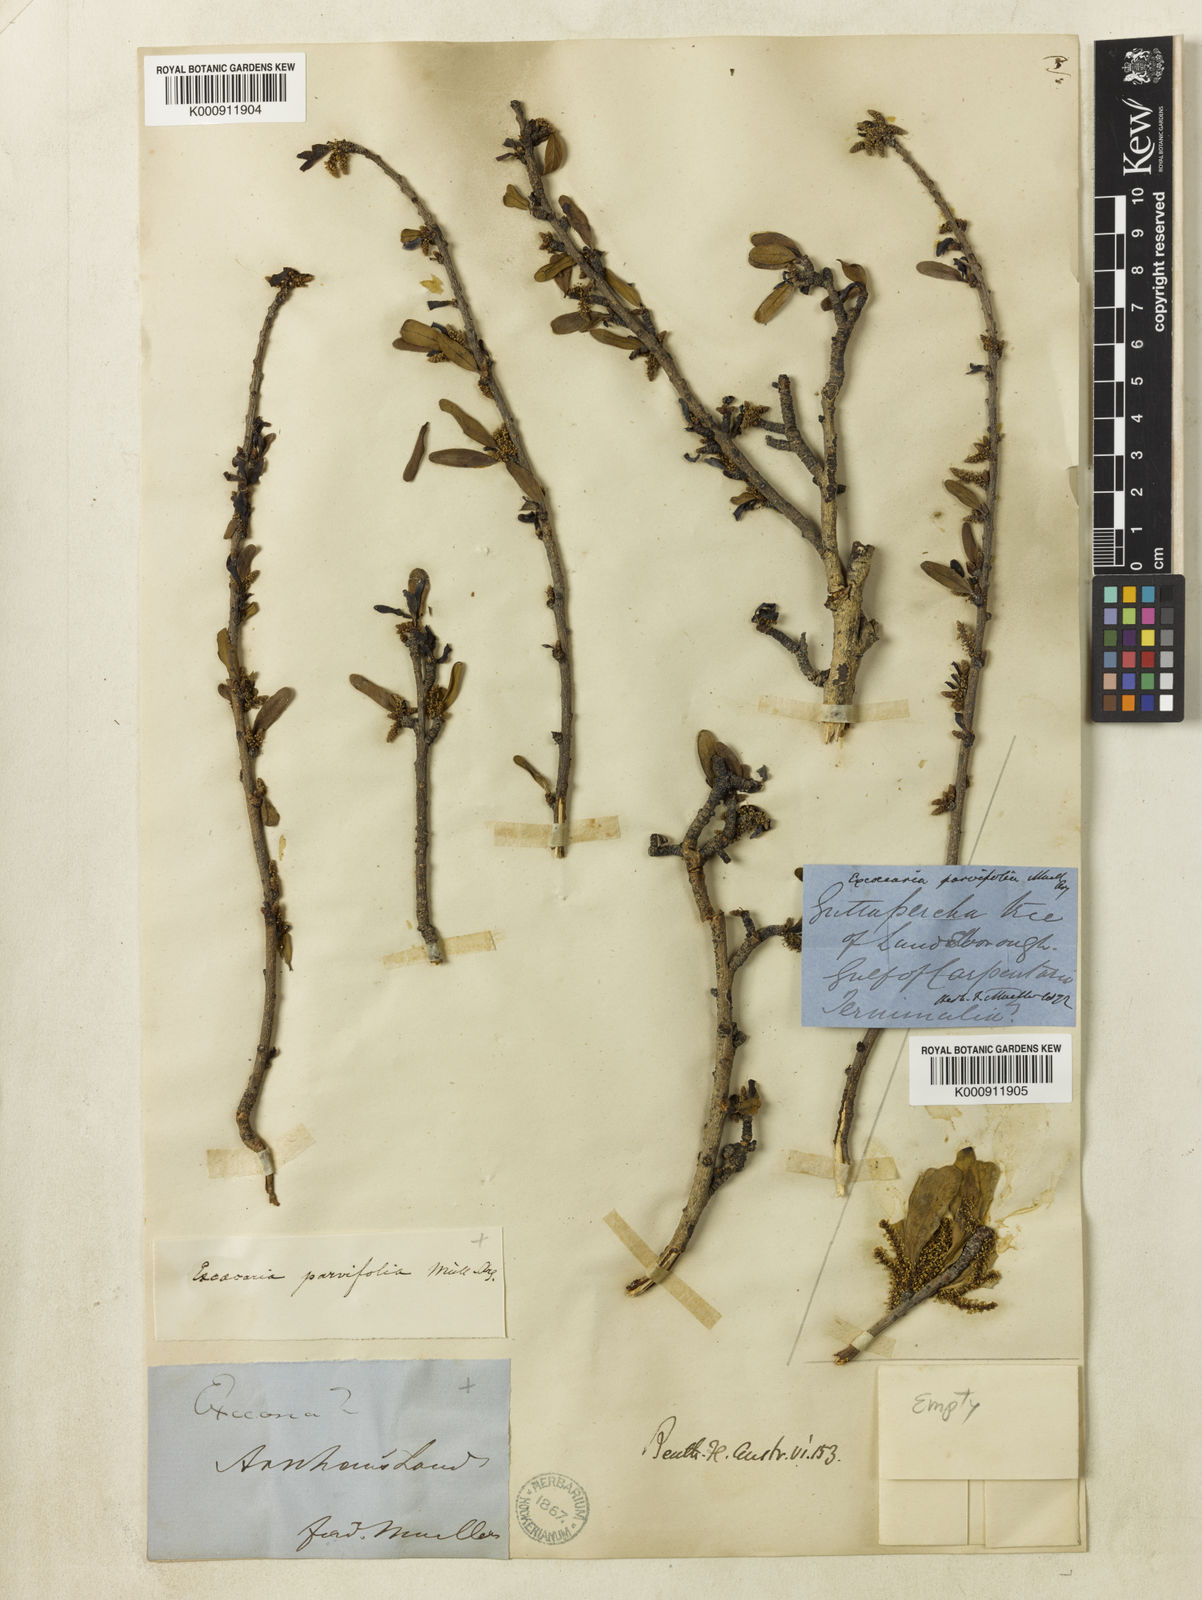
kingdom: Plantae
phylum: Tracheophyta
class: Magnoliopsida
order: Malpighiales
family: Euphorbiaceae
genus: Excoecaria
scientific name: Excoecaria
